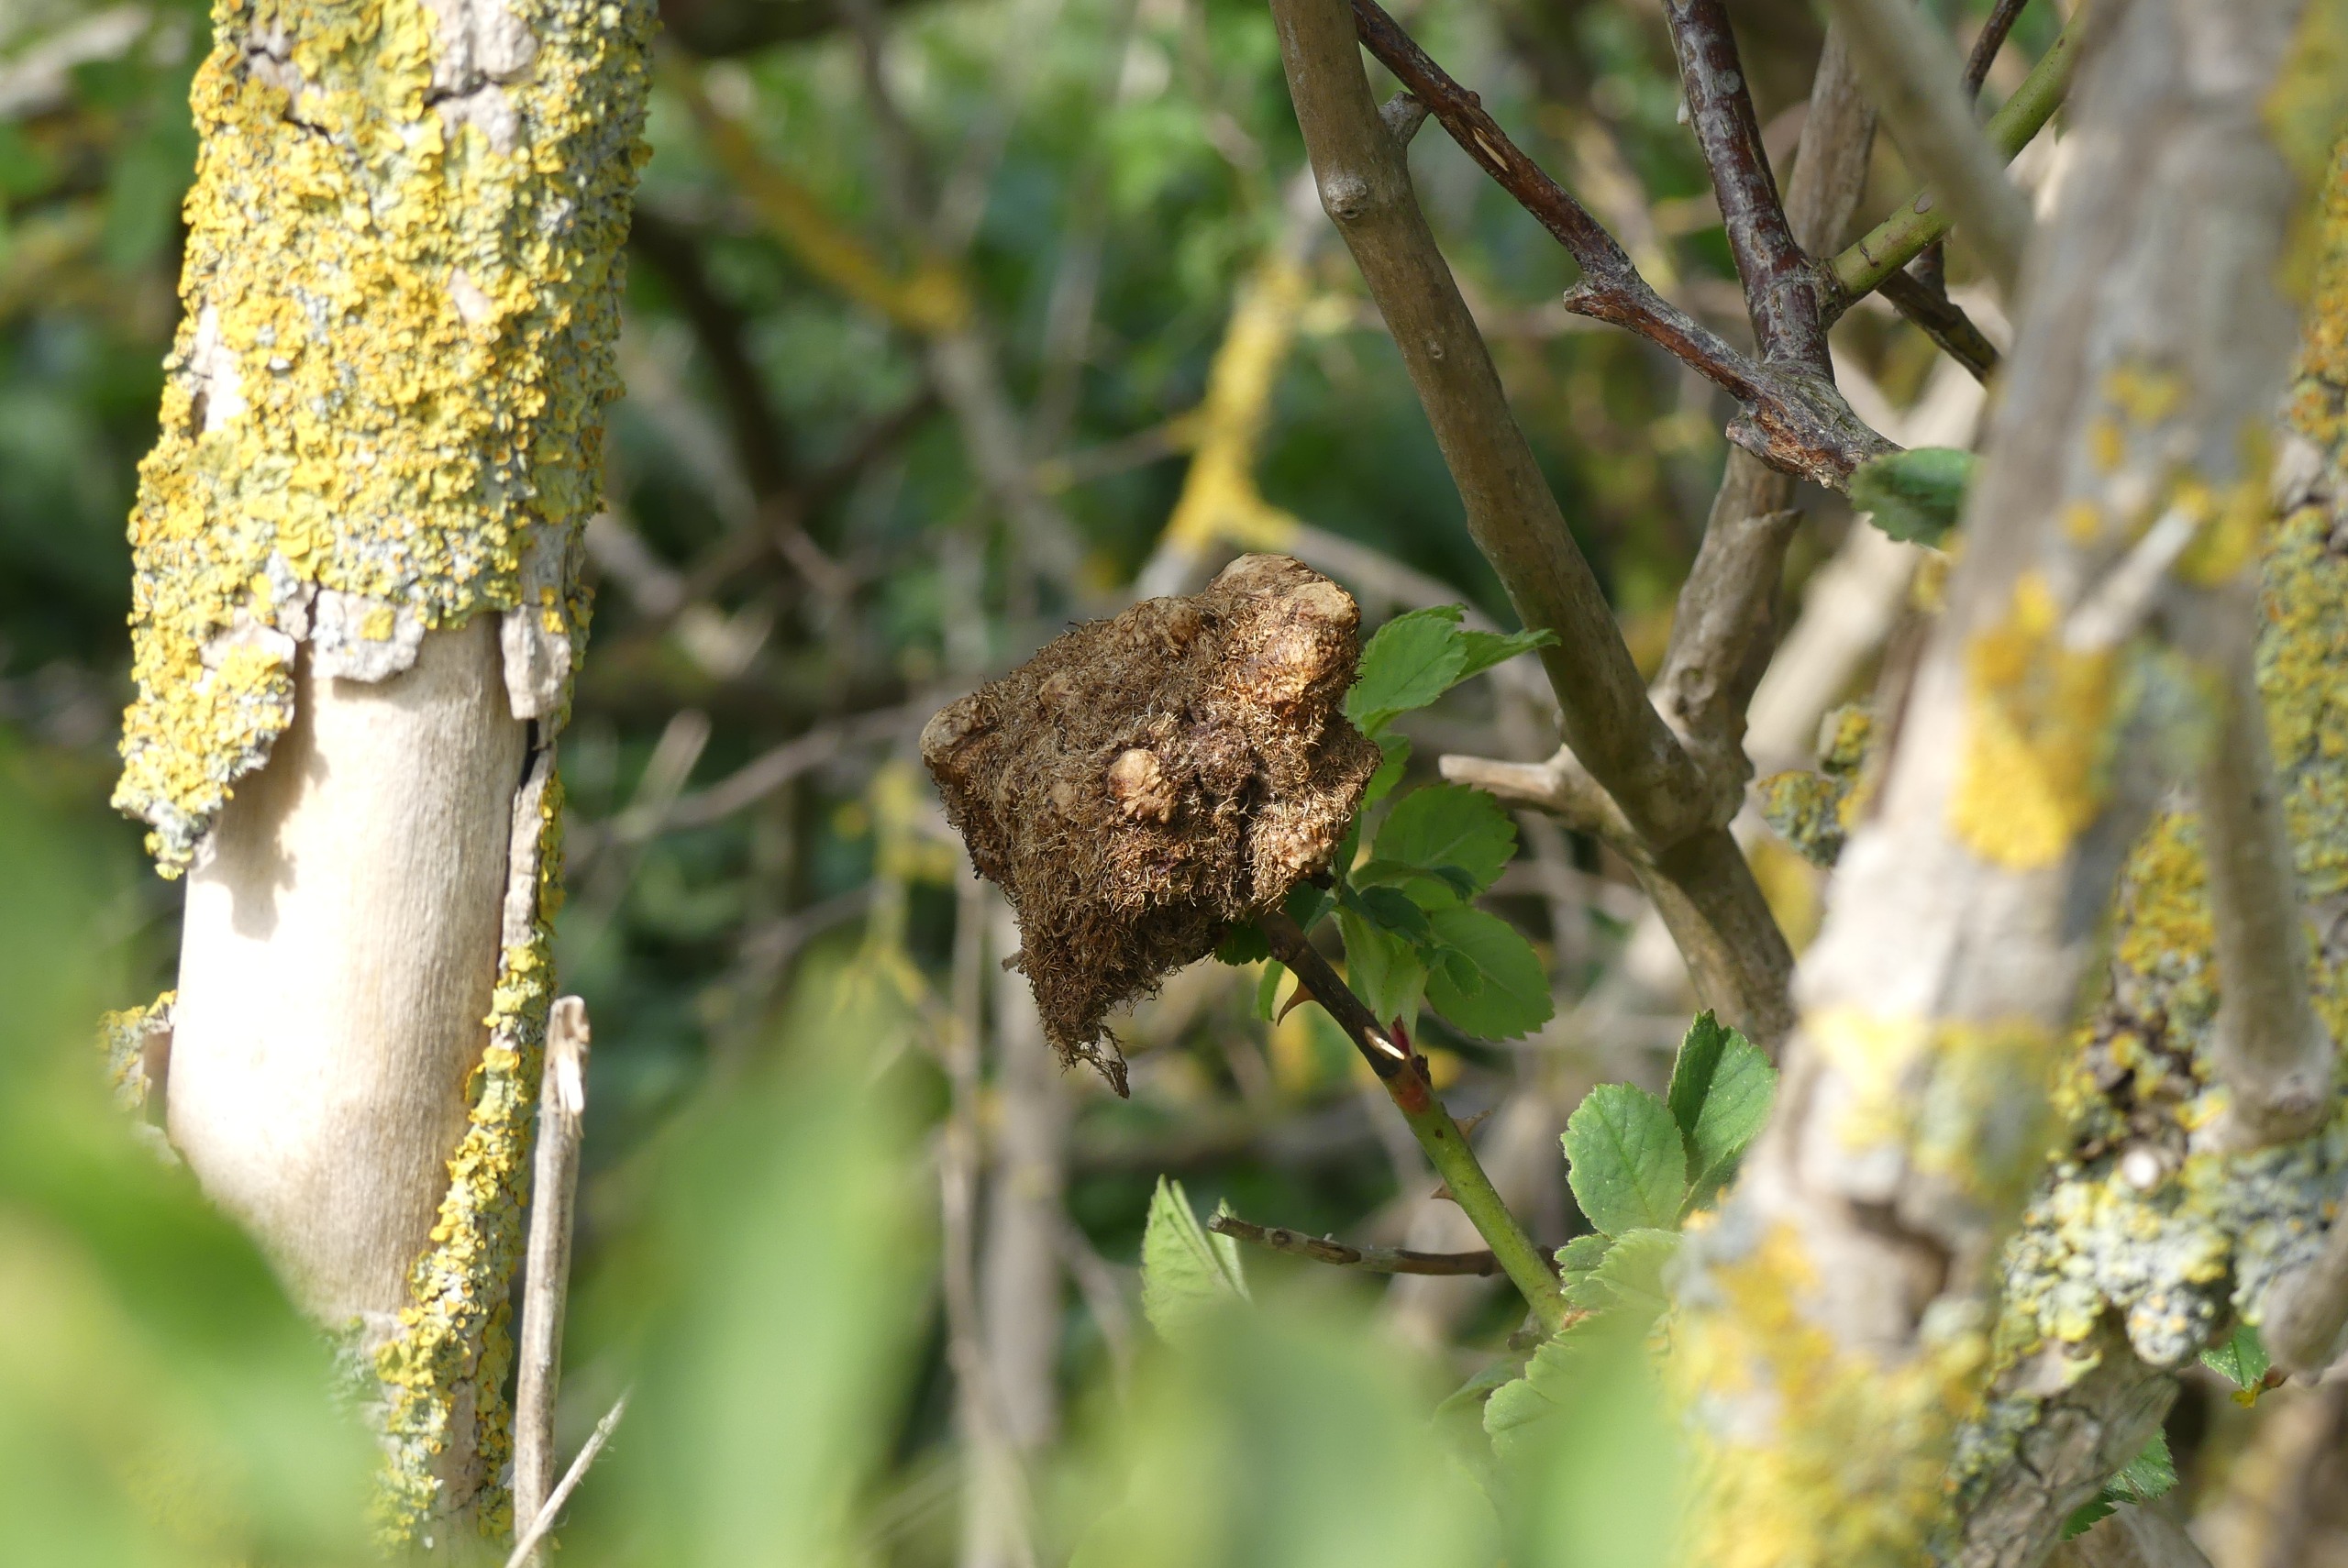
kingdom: Animalia
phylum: Arthropoda
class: Insecta
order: Hymenoptera
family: Cynipidae
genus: Diplolepis
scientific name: Diplolepis rosae
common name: Bedeguargalhveps
